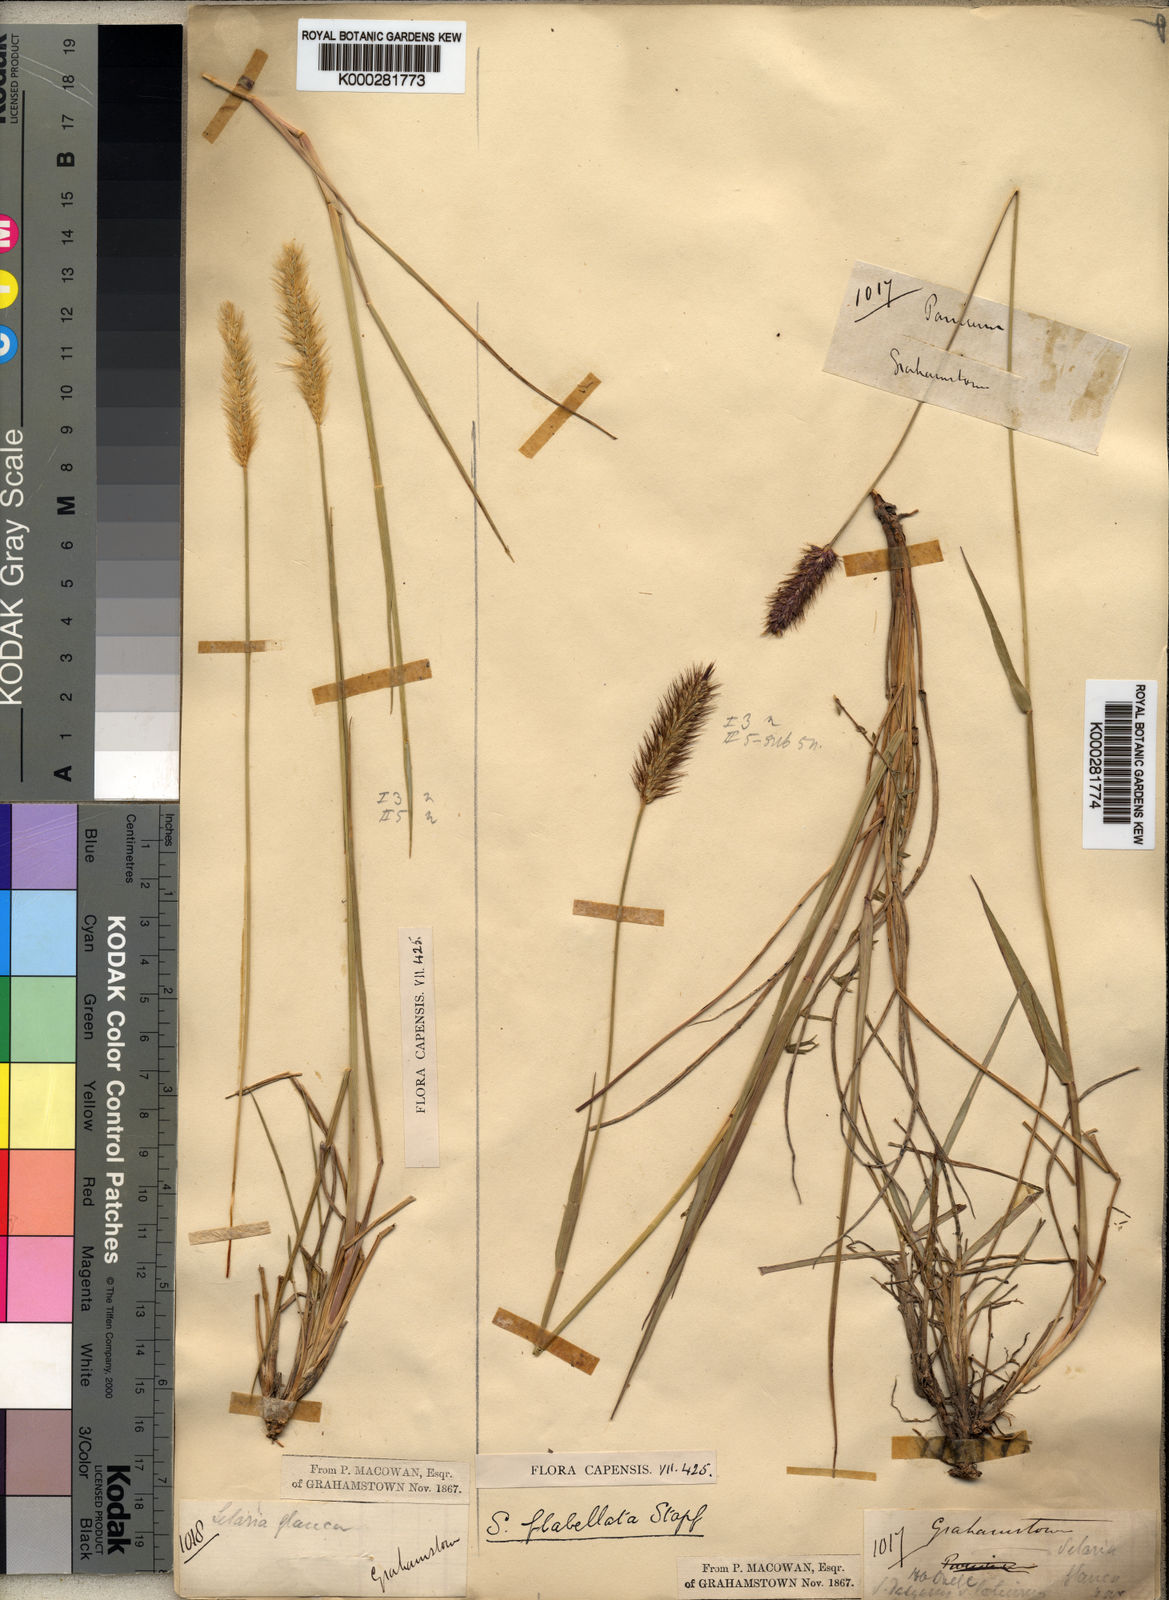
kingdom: Plantae
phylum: Tracheophyta
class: Liliopsida
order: Poales
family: Poaceae
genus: Setaria
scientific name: Setaria sphacelata
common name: African bristlegrass
